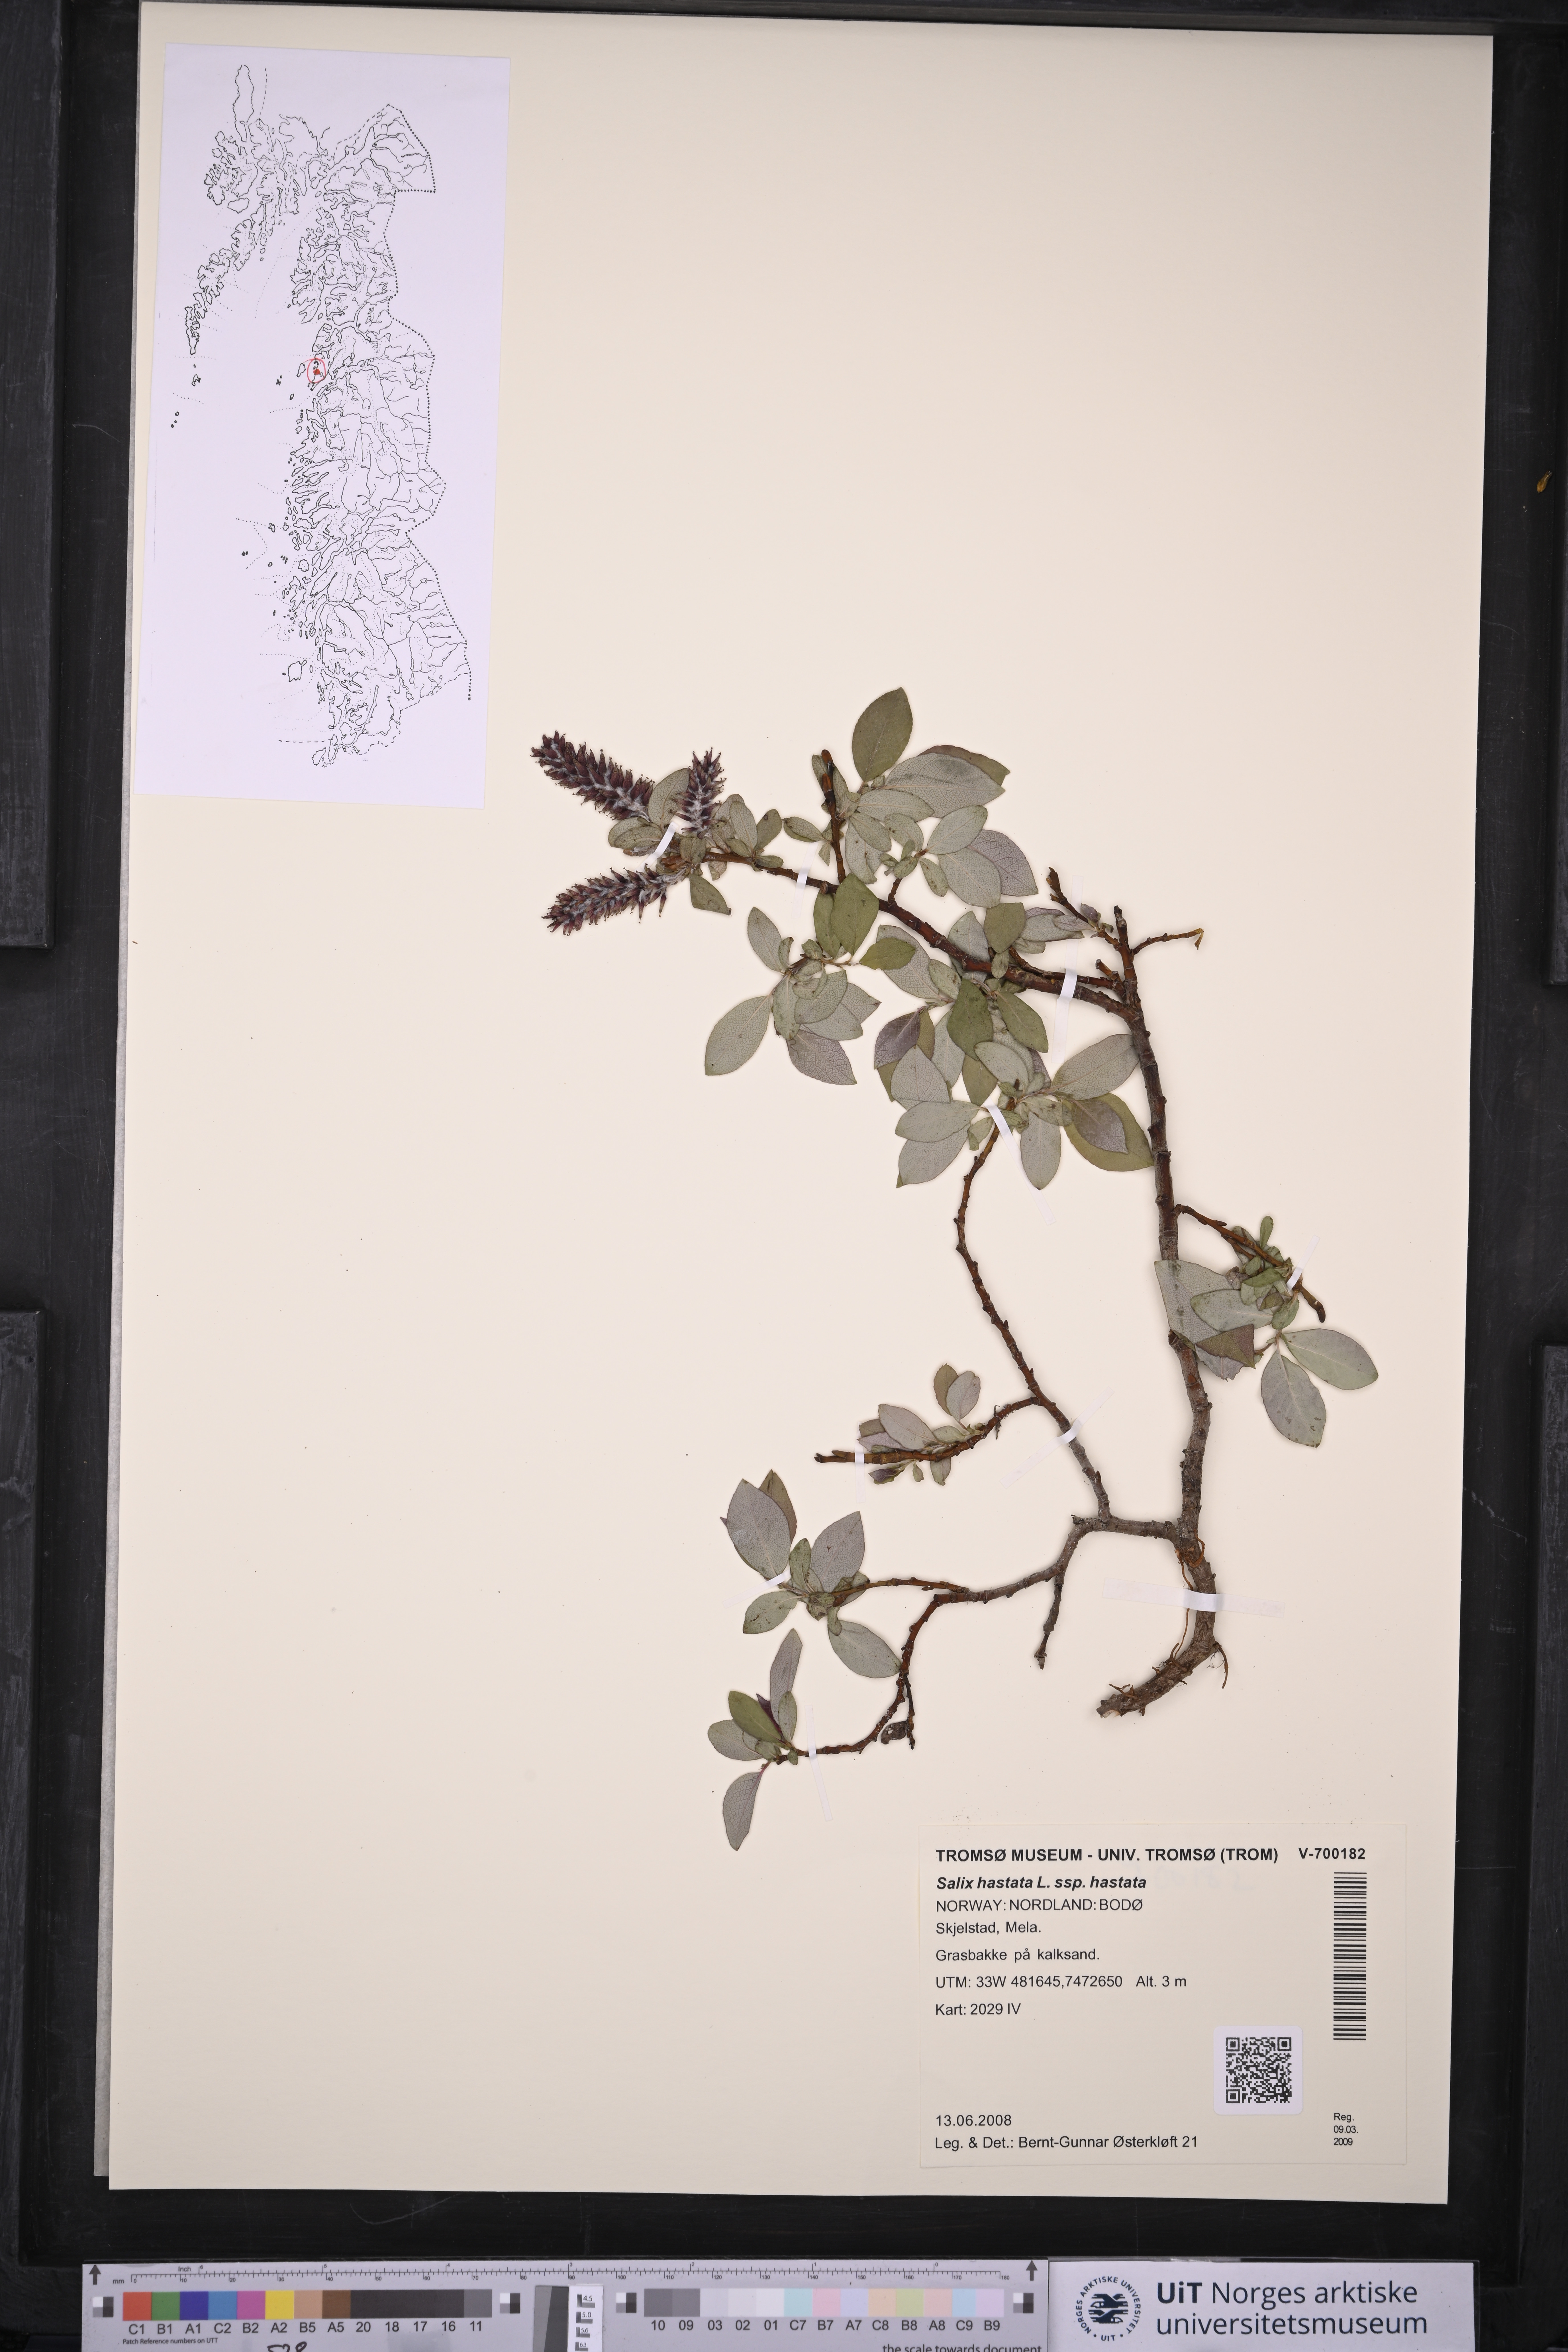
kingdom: Plantae
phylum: Tracheophyta
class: Magnoliopsida
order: Malpighiales
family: Salicaceae
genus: Salix
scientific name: Salix hastata
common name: Halberd willow
